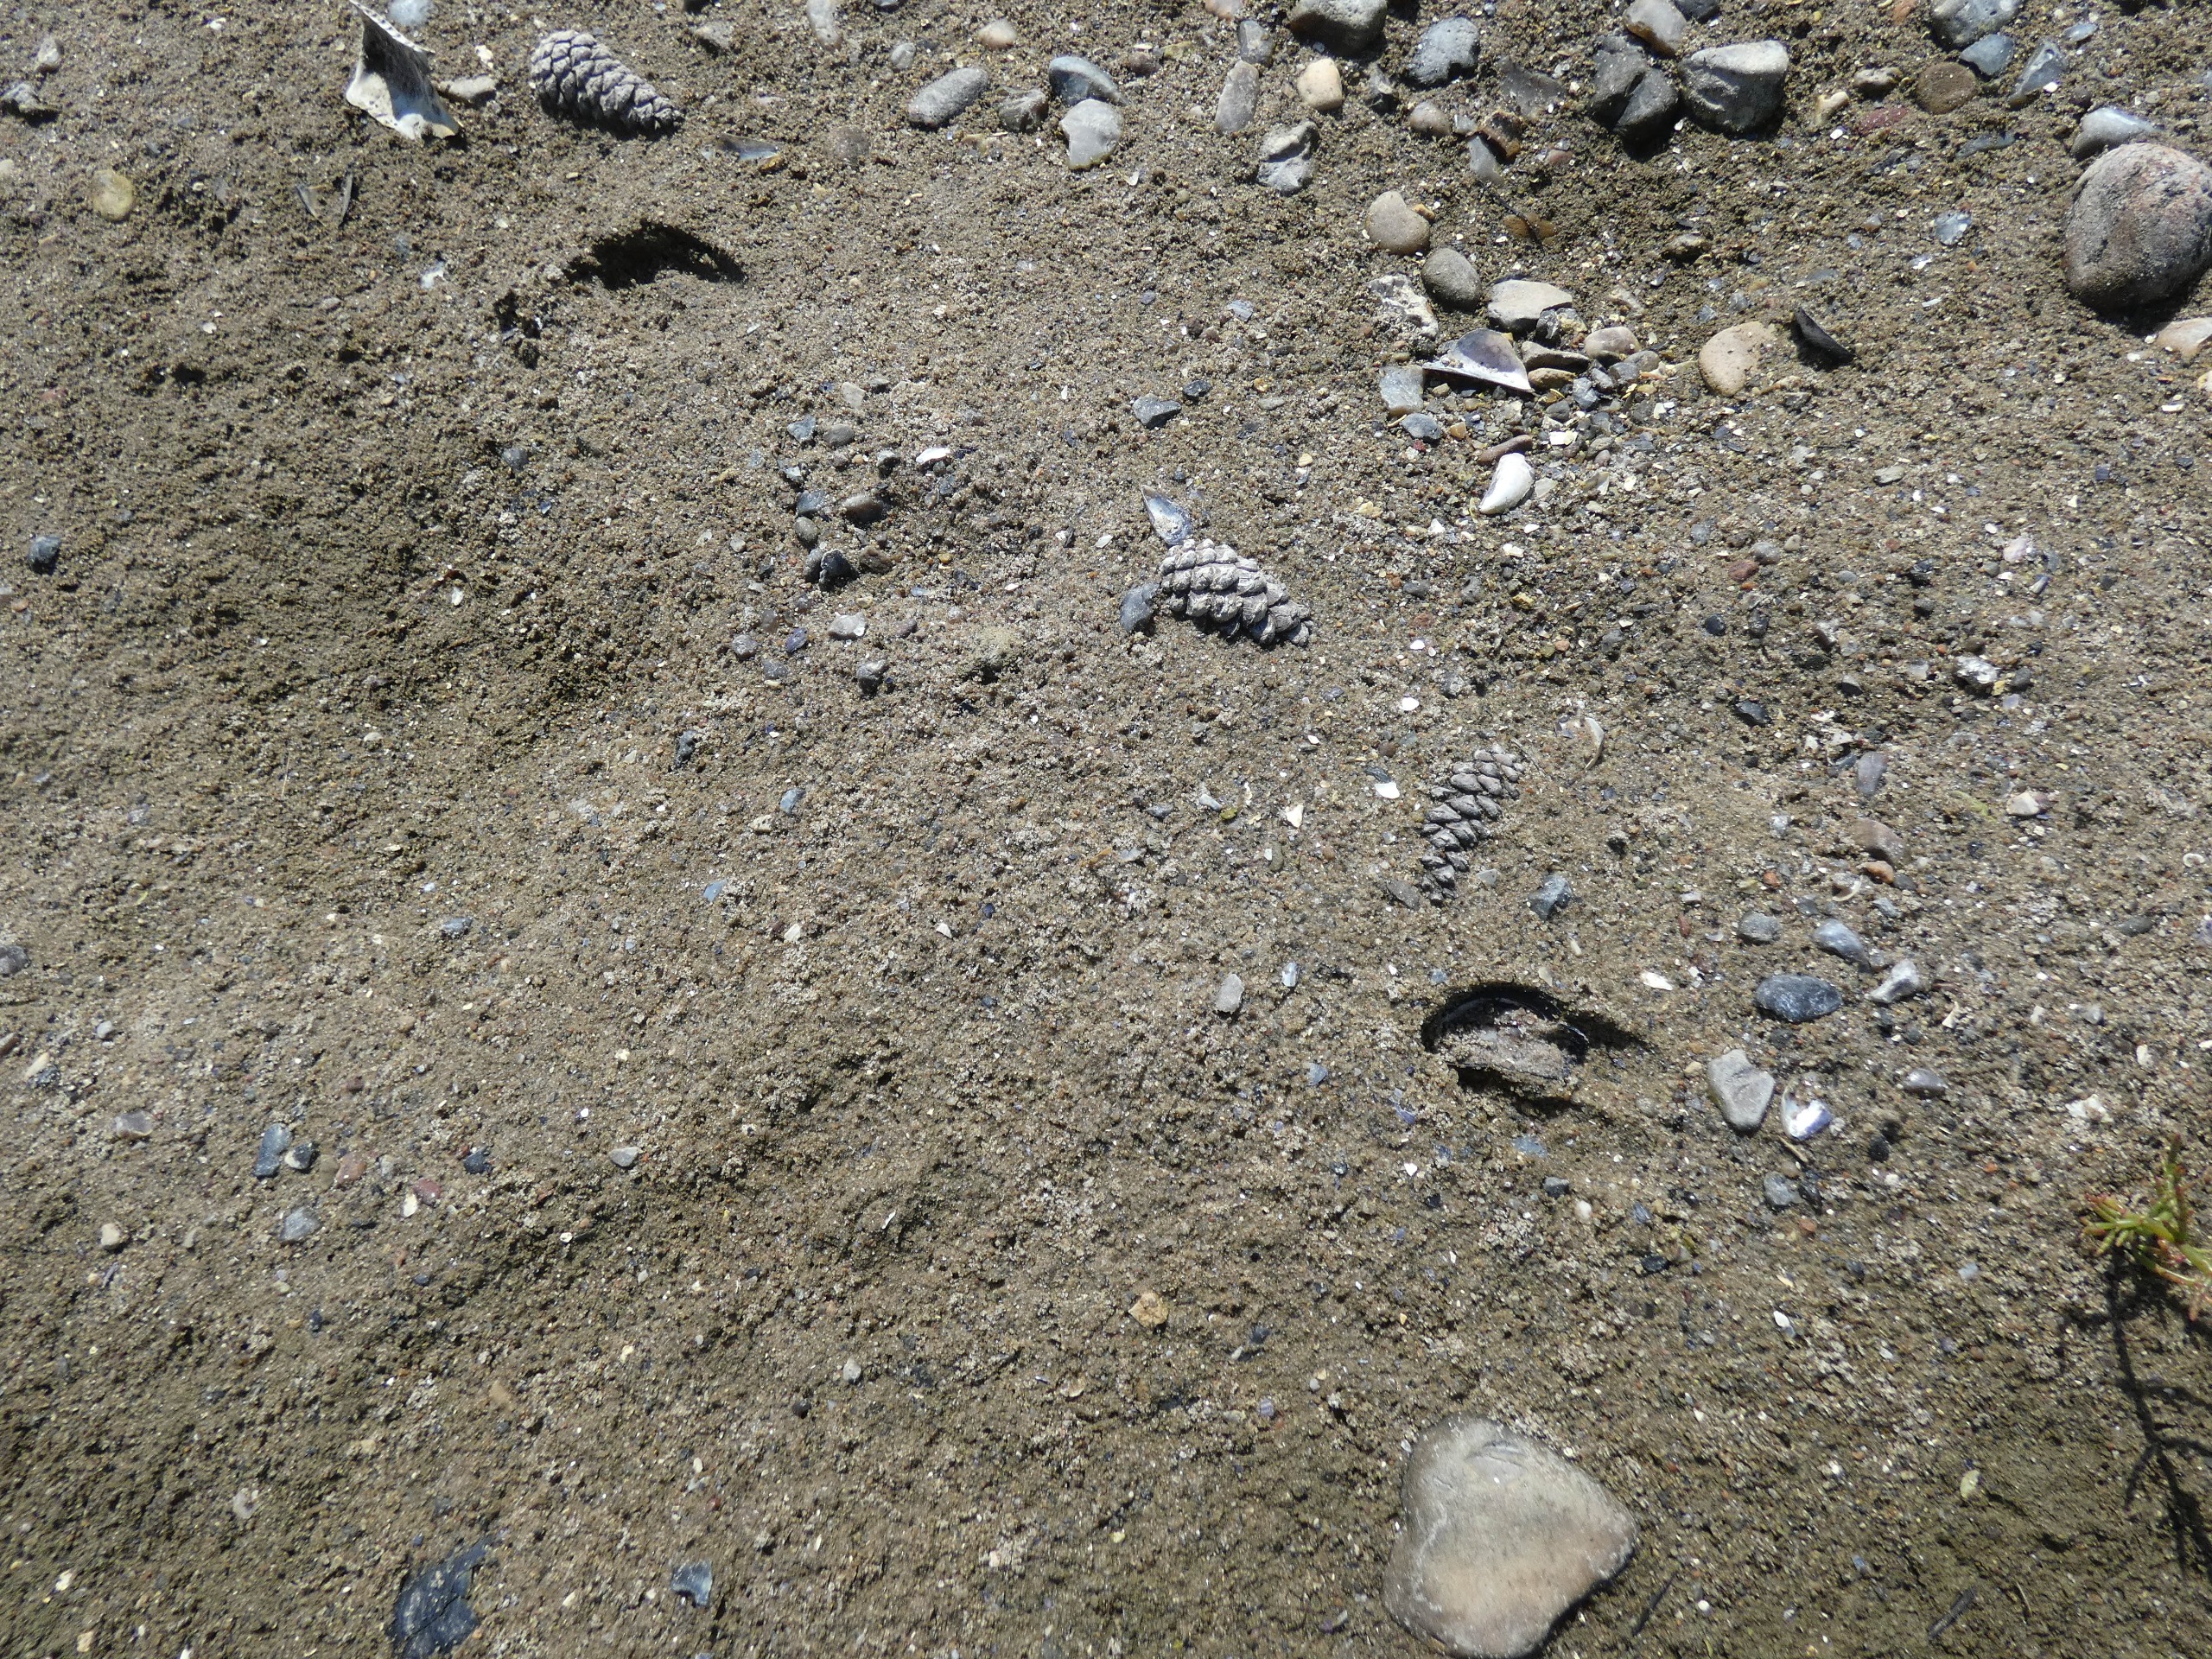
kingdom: Animalia
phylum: Chordata
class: Mammalia
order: Artiodactyla
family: Cervidae
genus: Capreolus
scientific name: Capreolus capreolus
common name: Rådyr
